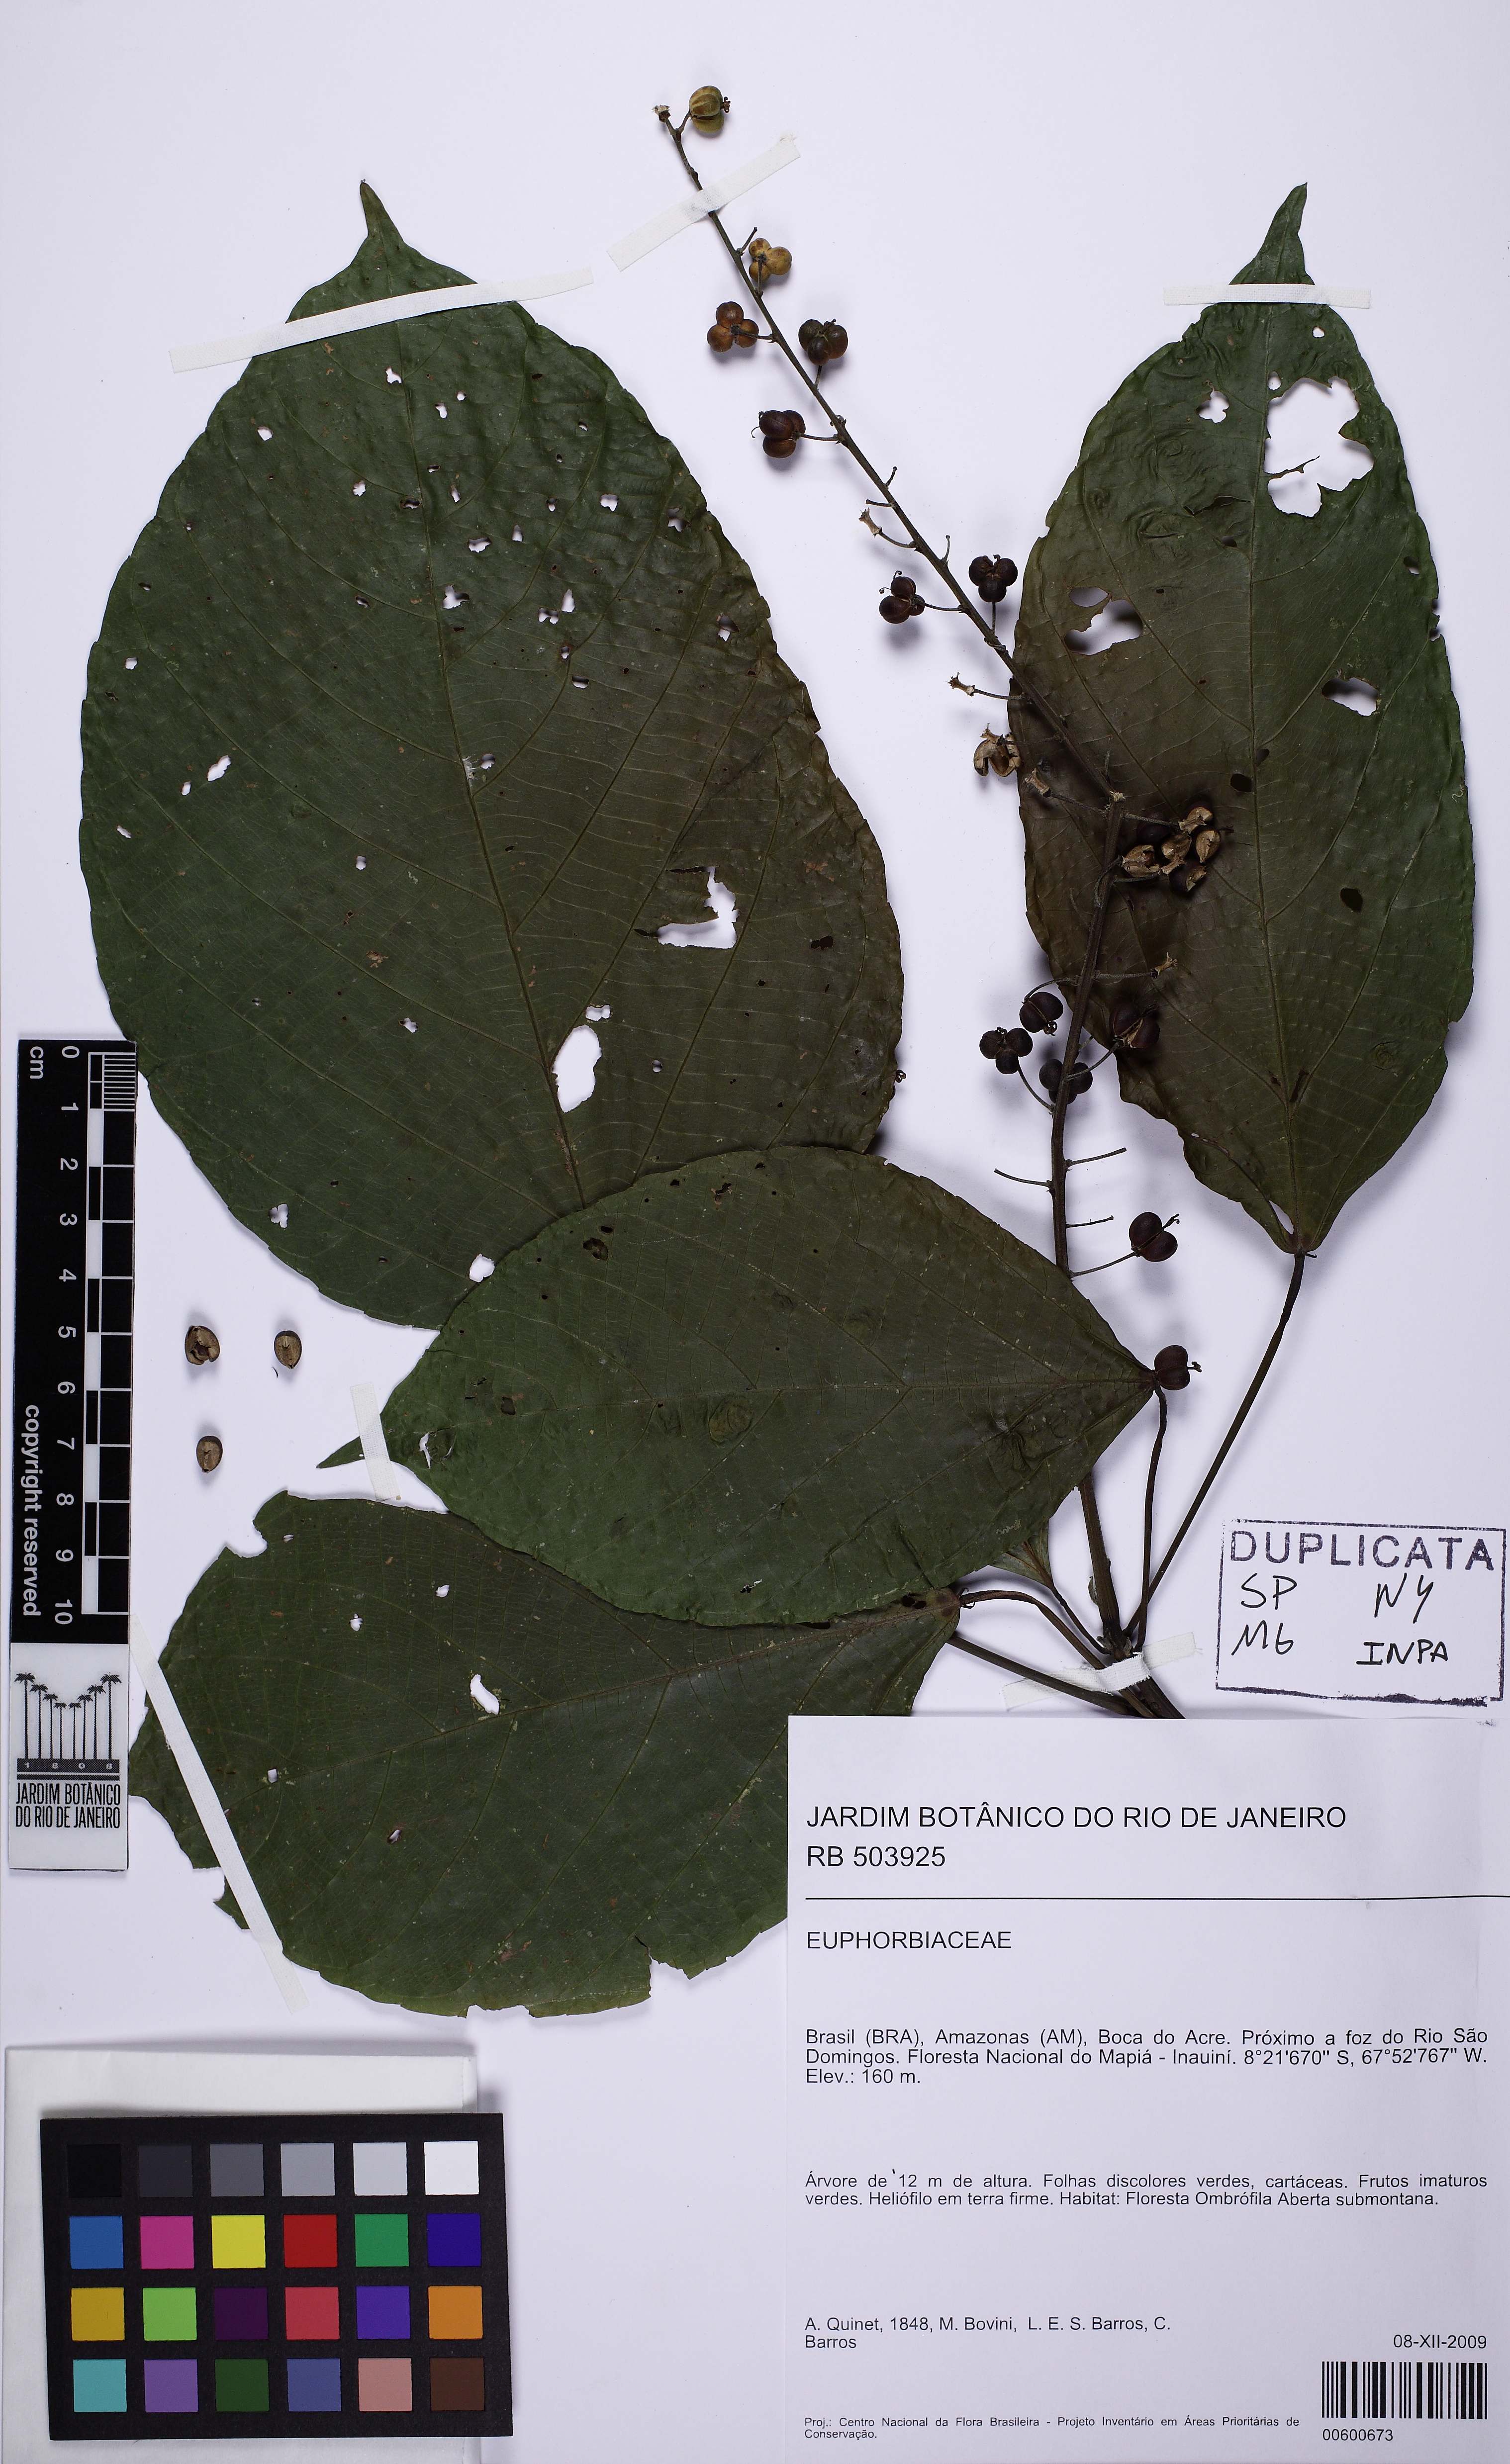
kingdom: Plantae
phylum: Tracheophyta
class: Magnoliopsida
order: Malpighiales
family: Euphorbiaceae
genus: Aparisthmium
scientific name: Aparisthmium cordatum
